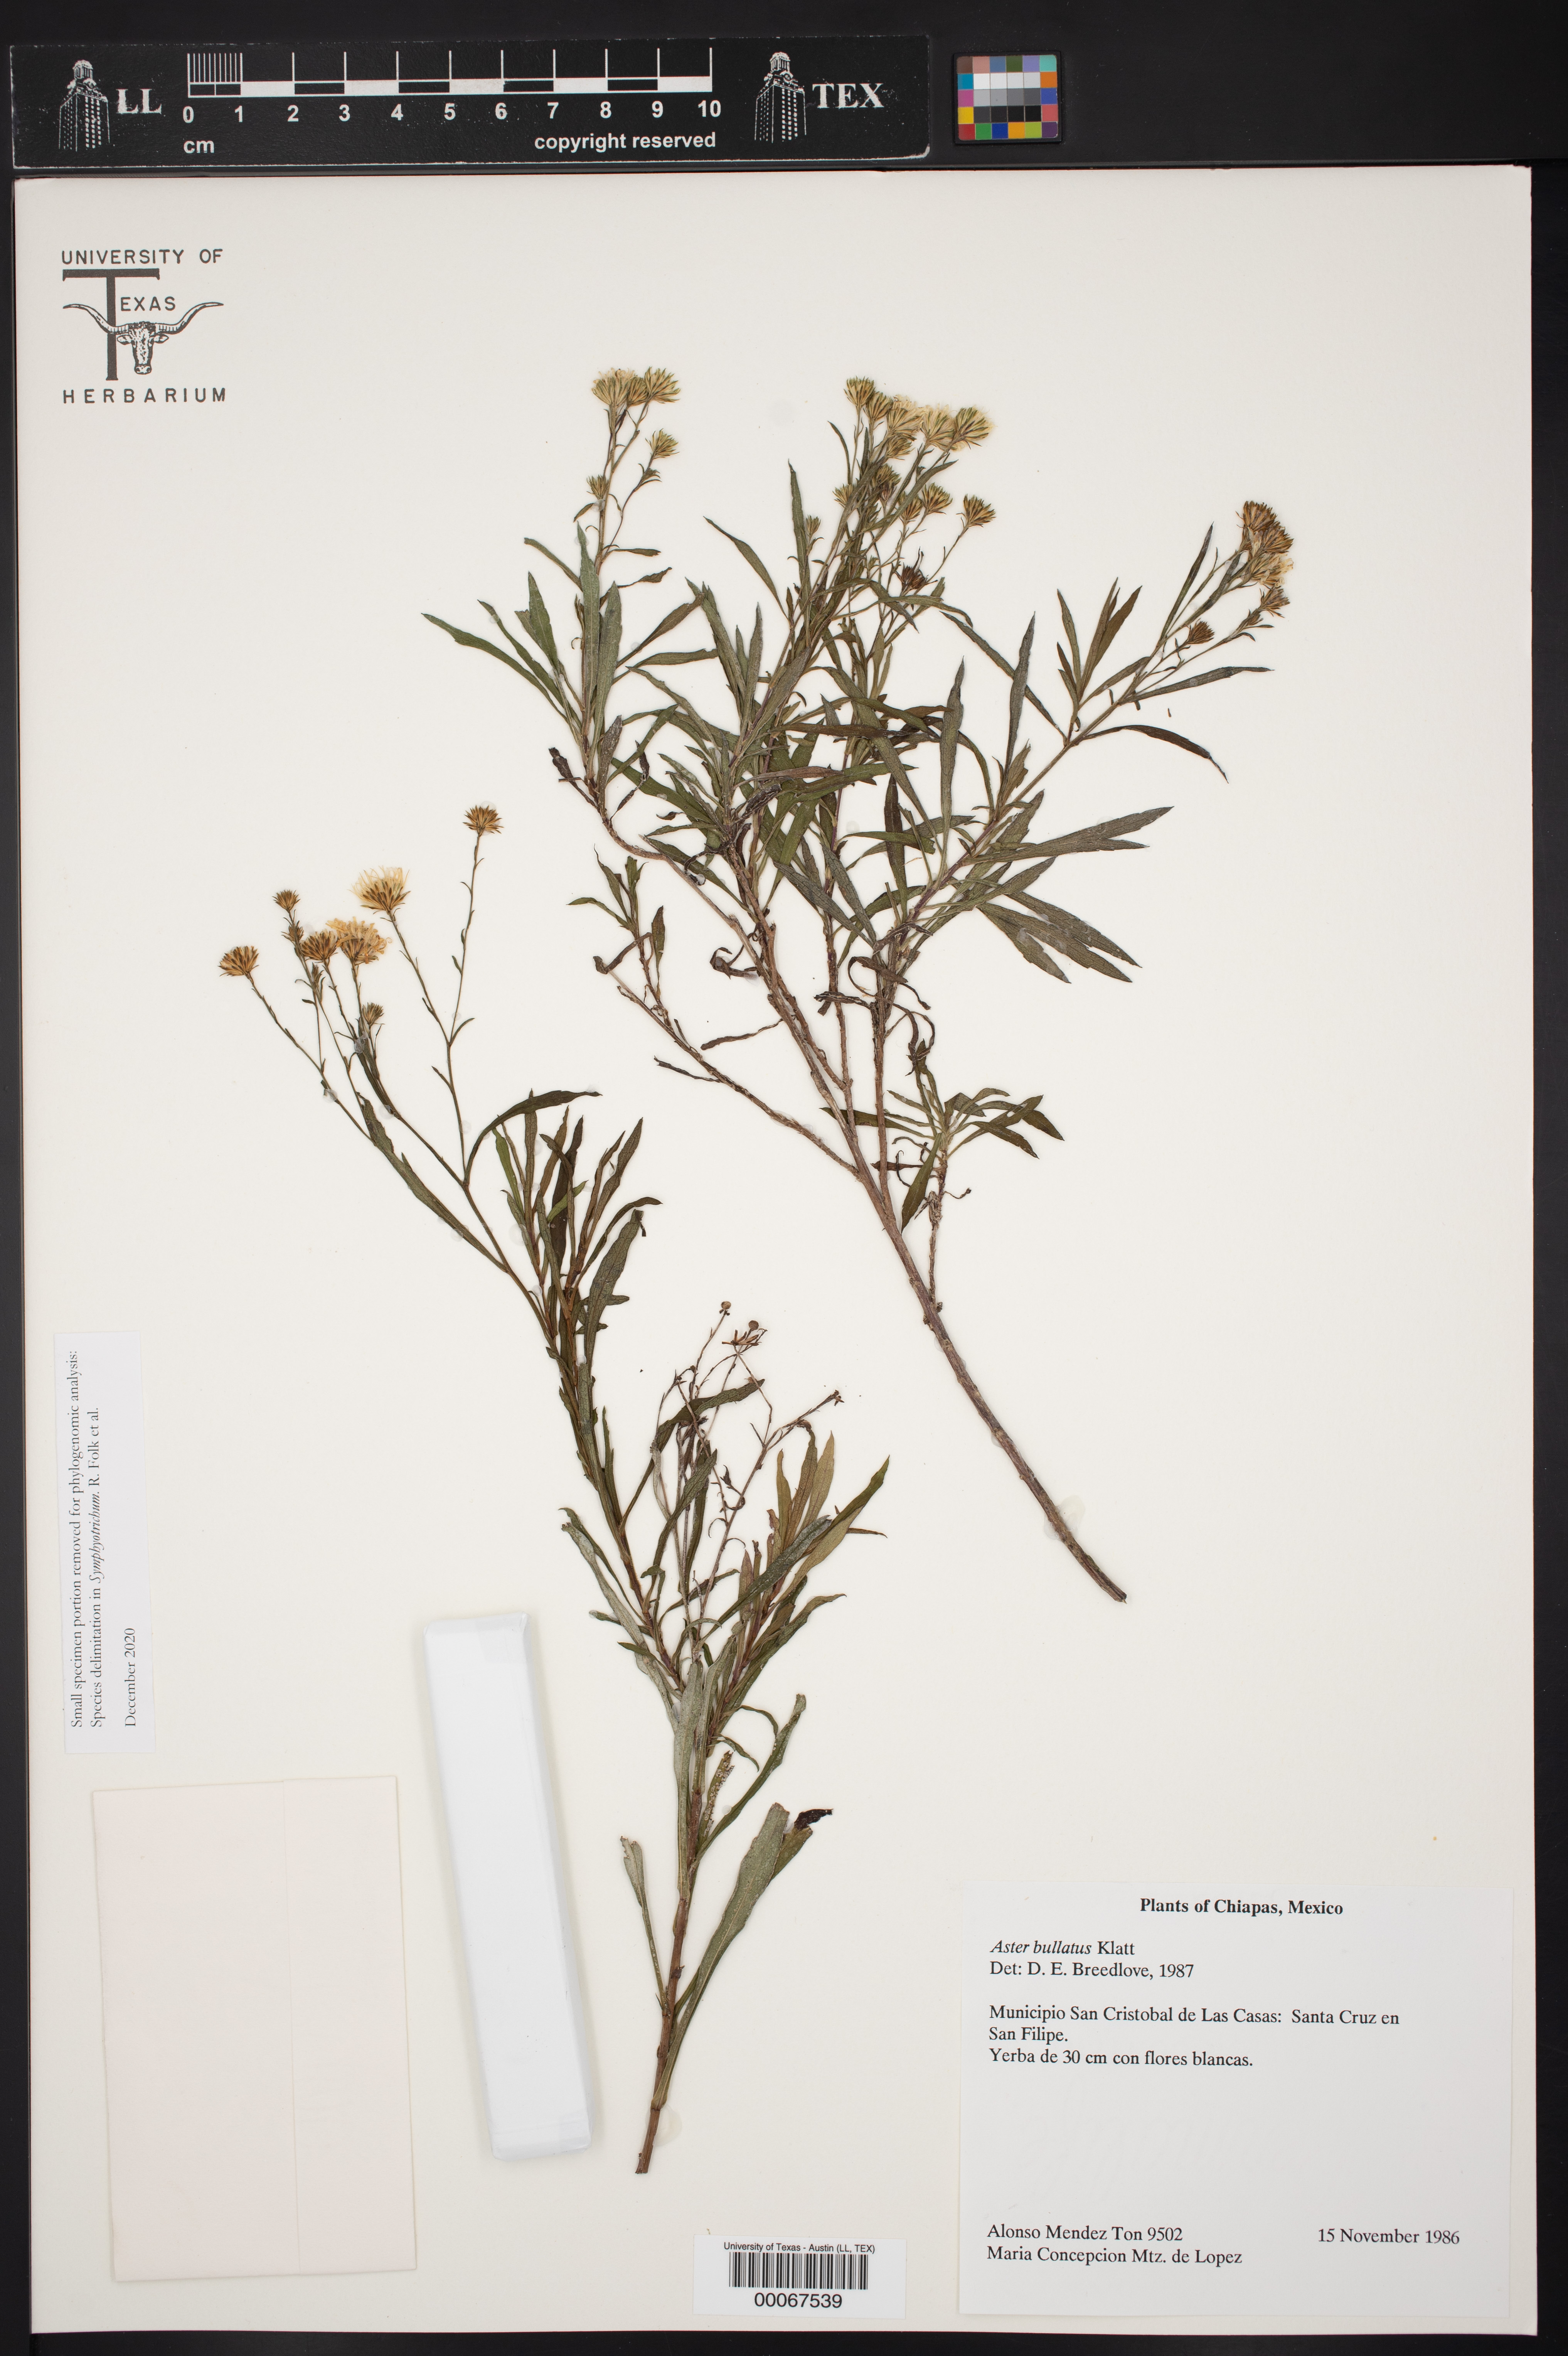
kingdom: Plantae
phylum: Tracheophyta
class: Magnoliopsida
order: Asterales
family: Asteraceae
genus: Symphyotrichum
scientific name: Symphyotrichum bullatum
